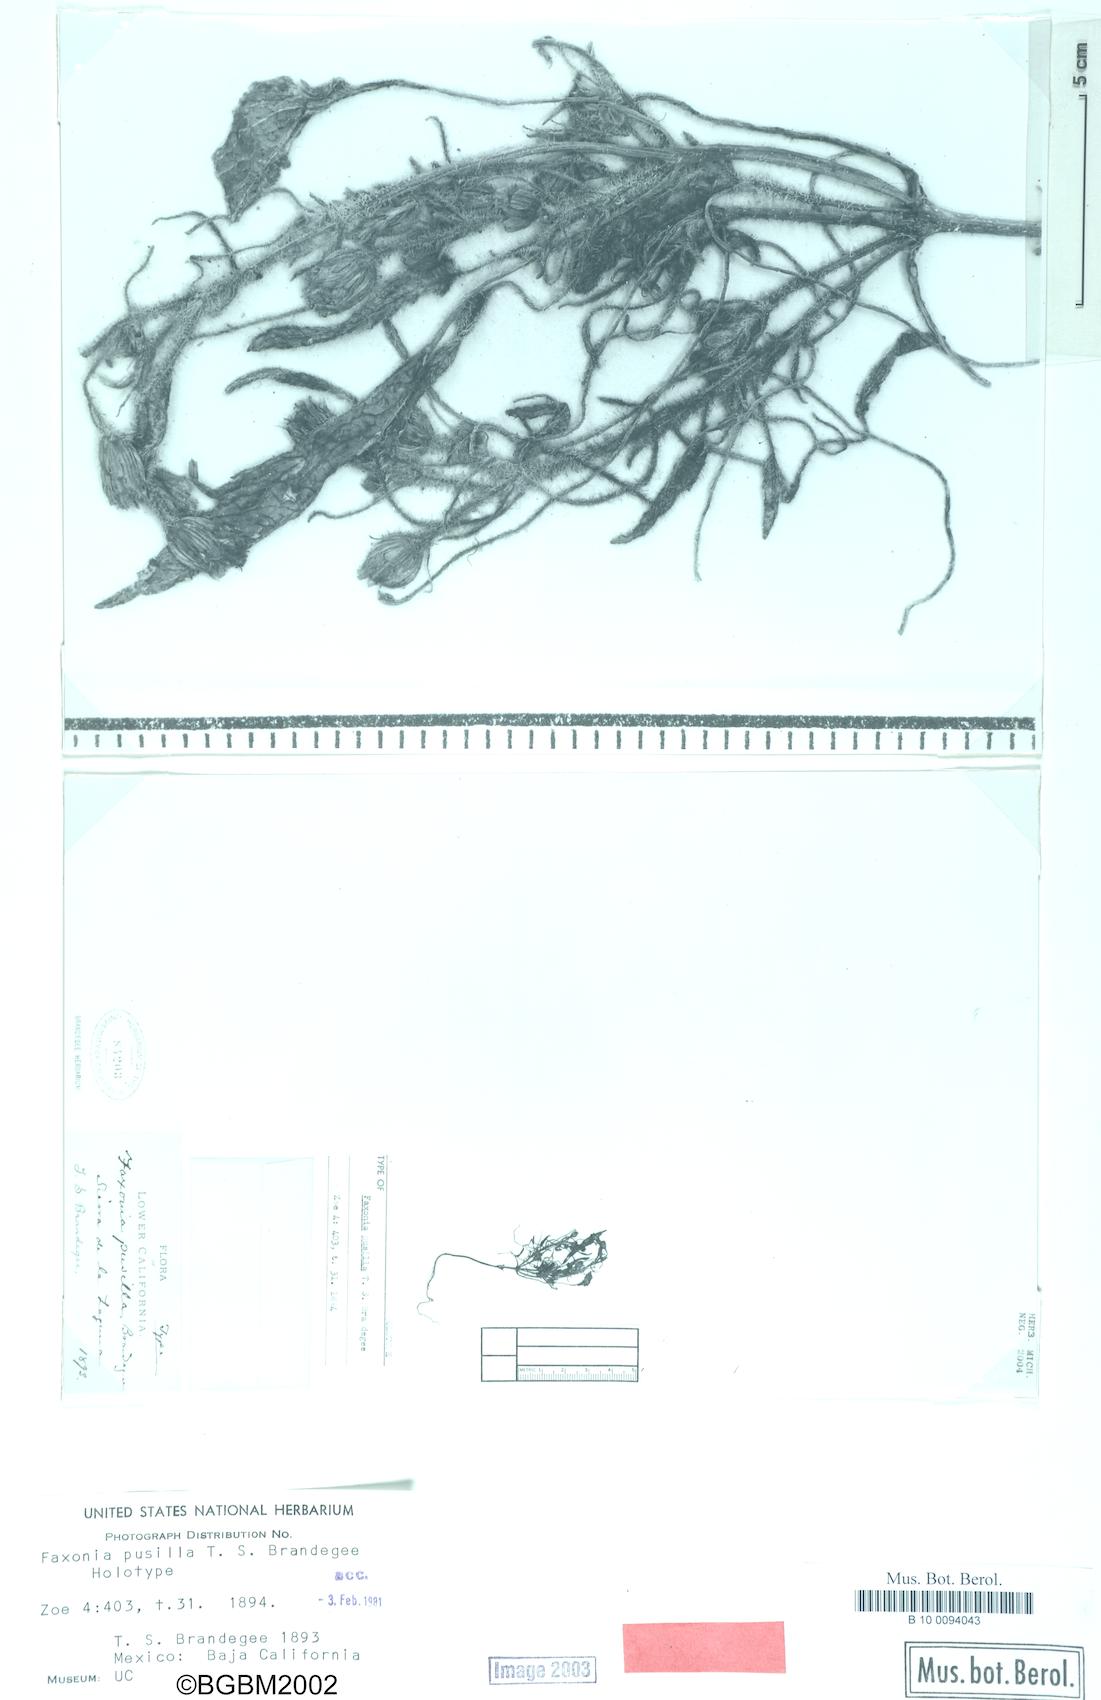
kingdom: Plantae
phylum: Tracheophyta
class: Magnoliopsida
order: Asterales
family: Asteraceae
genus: Faxonia
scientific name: Faxonia pusilla
